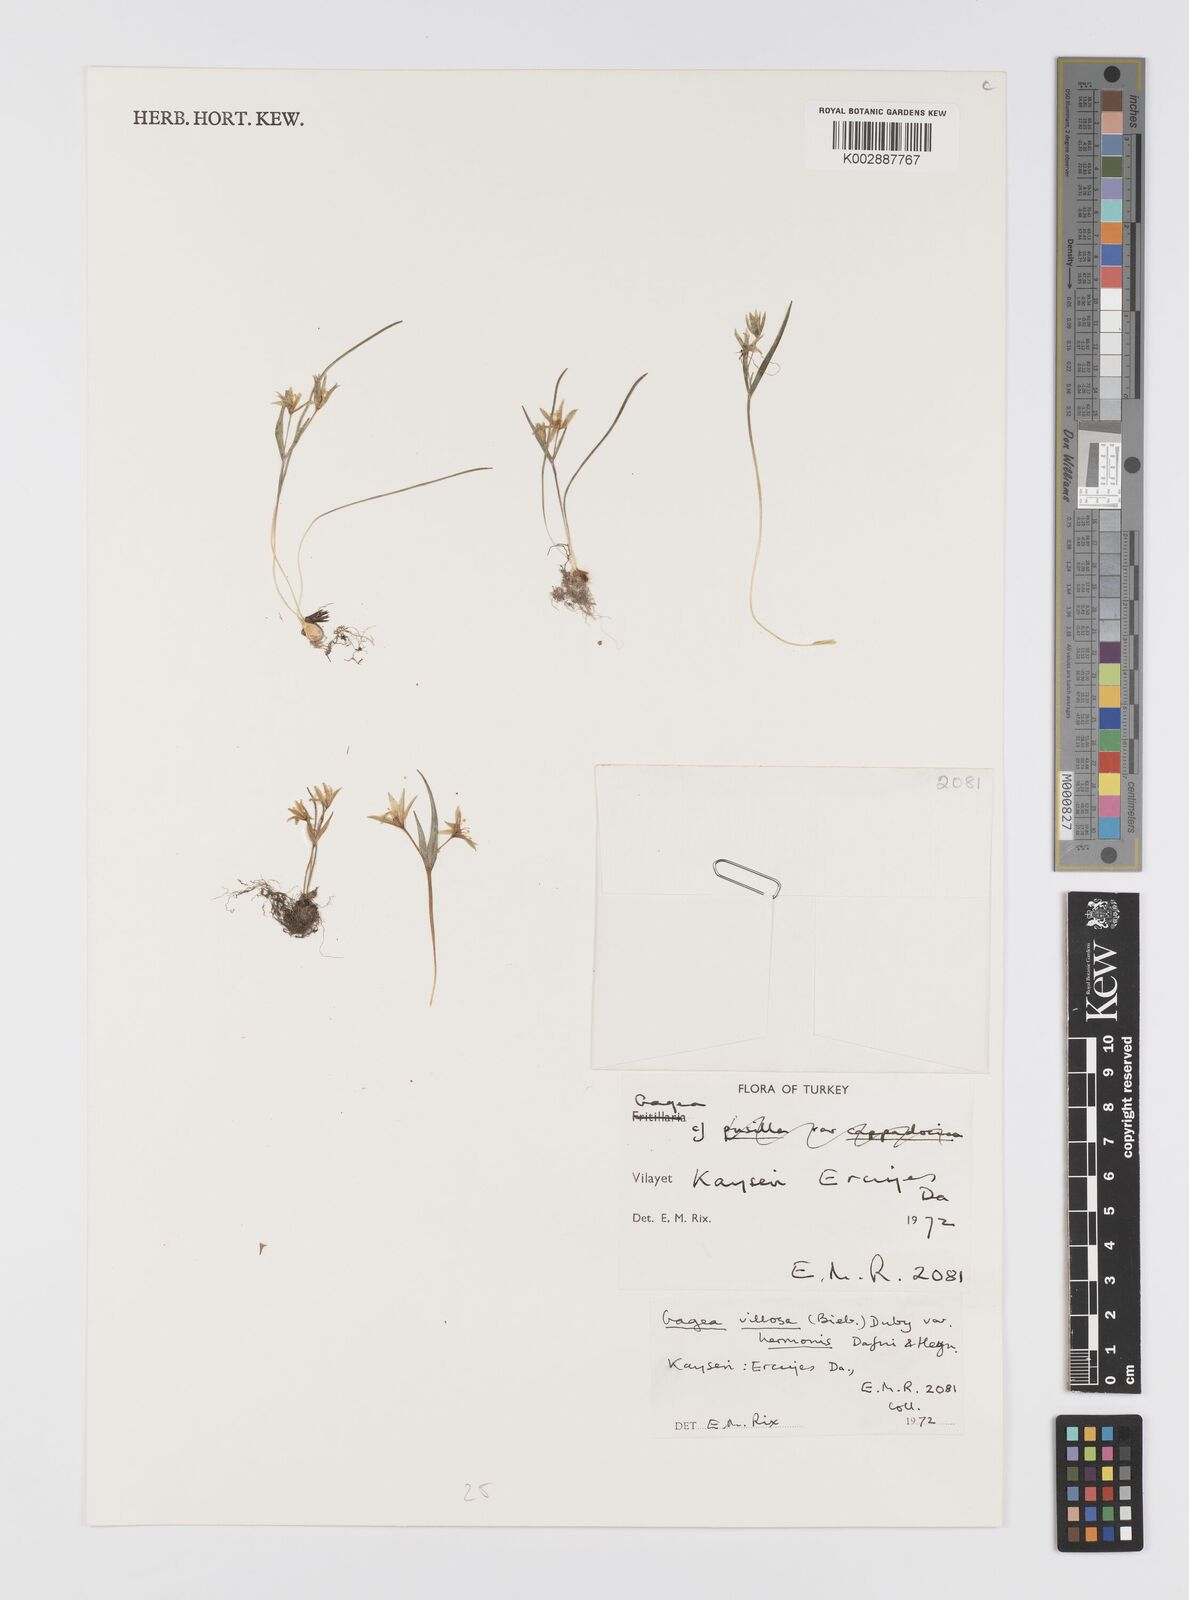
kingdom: Plantae
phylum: Tracheophyta
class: Liliopsida
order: Liliales
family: Liliaceae
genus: Gagea
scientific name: Gagea villosa
